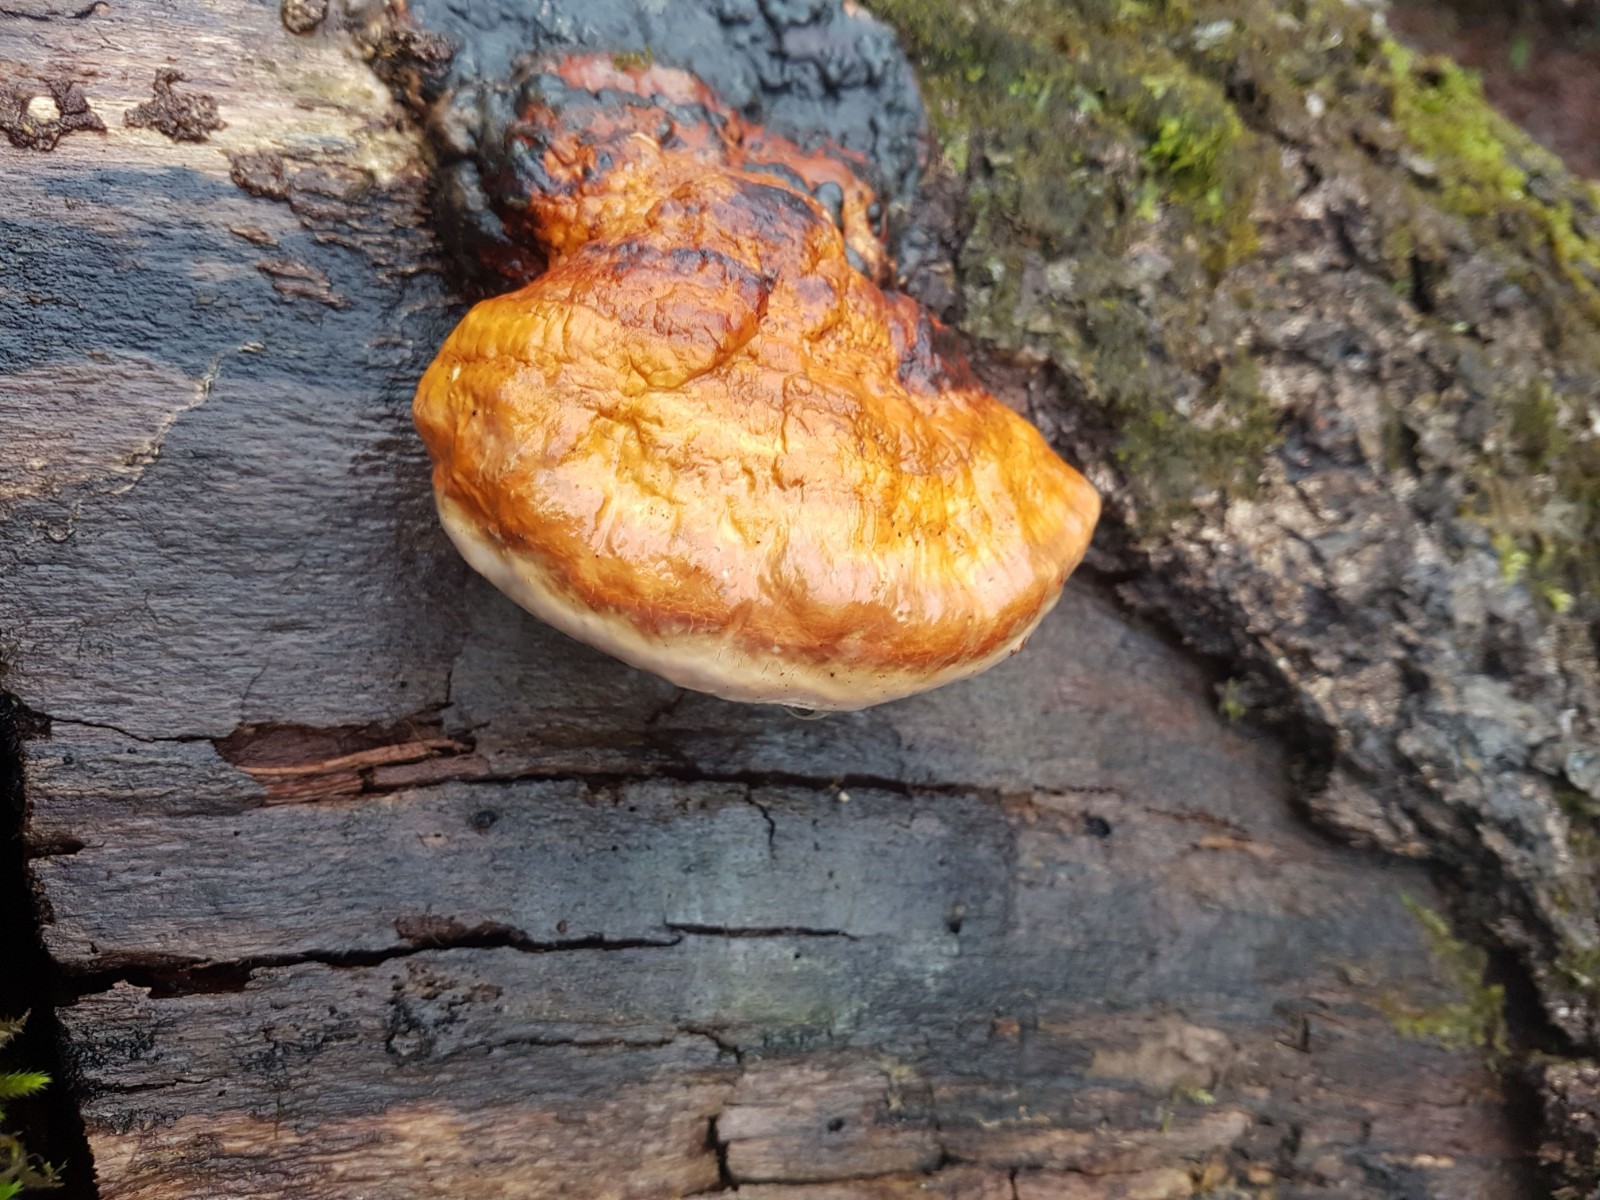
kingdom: Fungi
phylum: Basidiomycota
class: Agaricomycetes
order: Polyporales
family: Fomitopsidaceae
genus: Fomitopsis
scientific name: Fomitopsis pinicola
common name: randbæltet hovporesvamp
